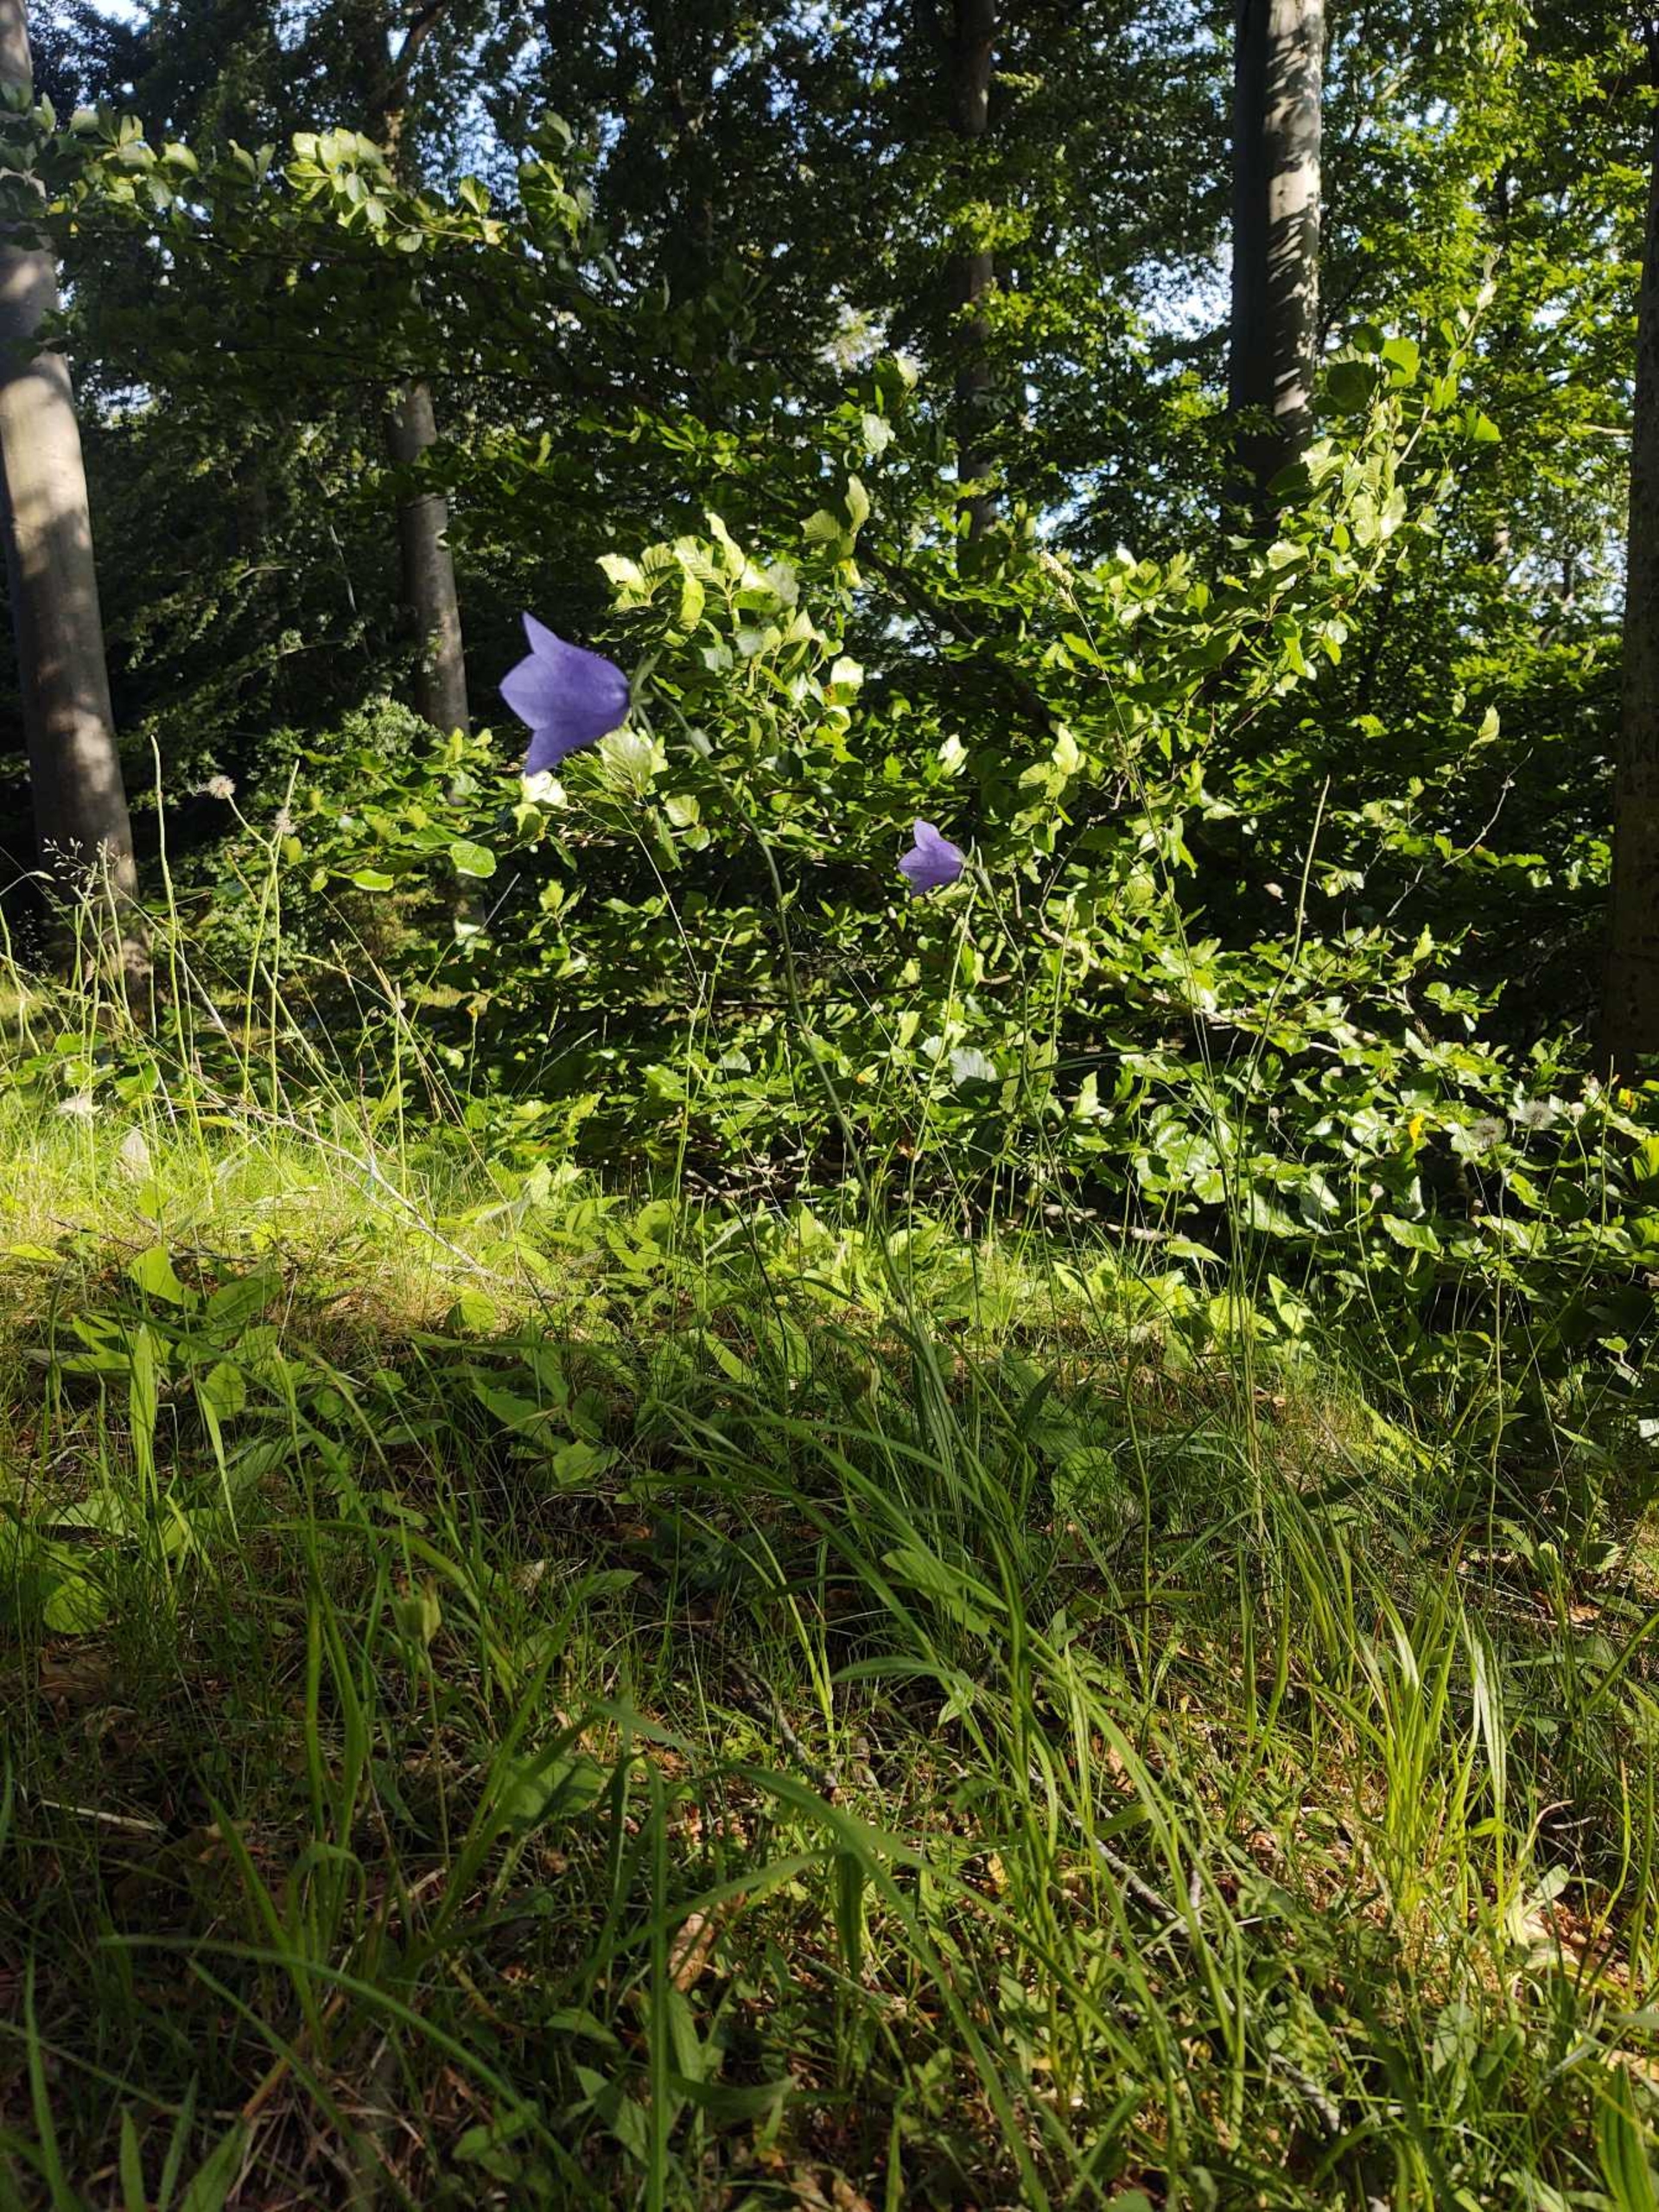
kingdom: Plantae
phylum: Tracheophyta
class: Magnoliopsida
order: Asterales
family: Campanulaceae
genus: Campanula
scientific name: Campanula persicifolia
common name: Smalbladet klokke
